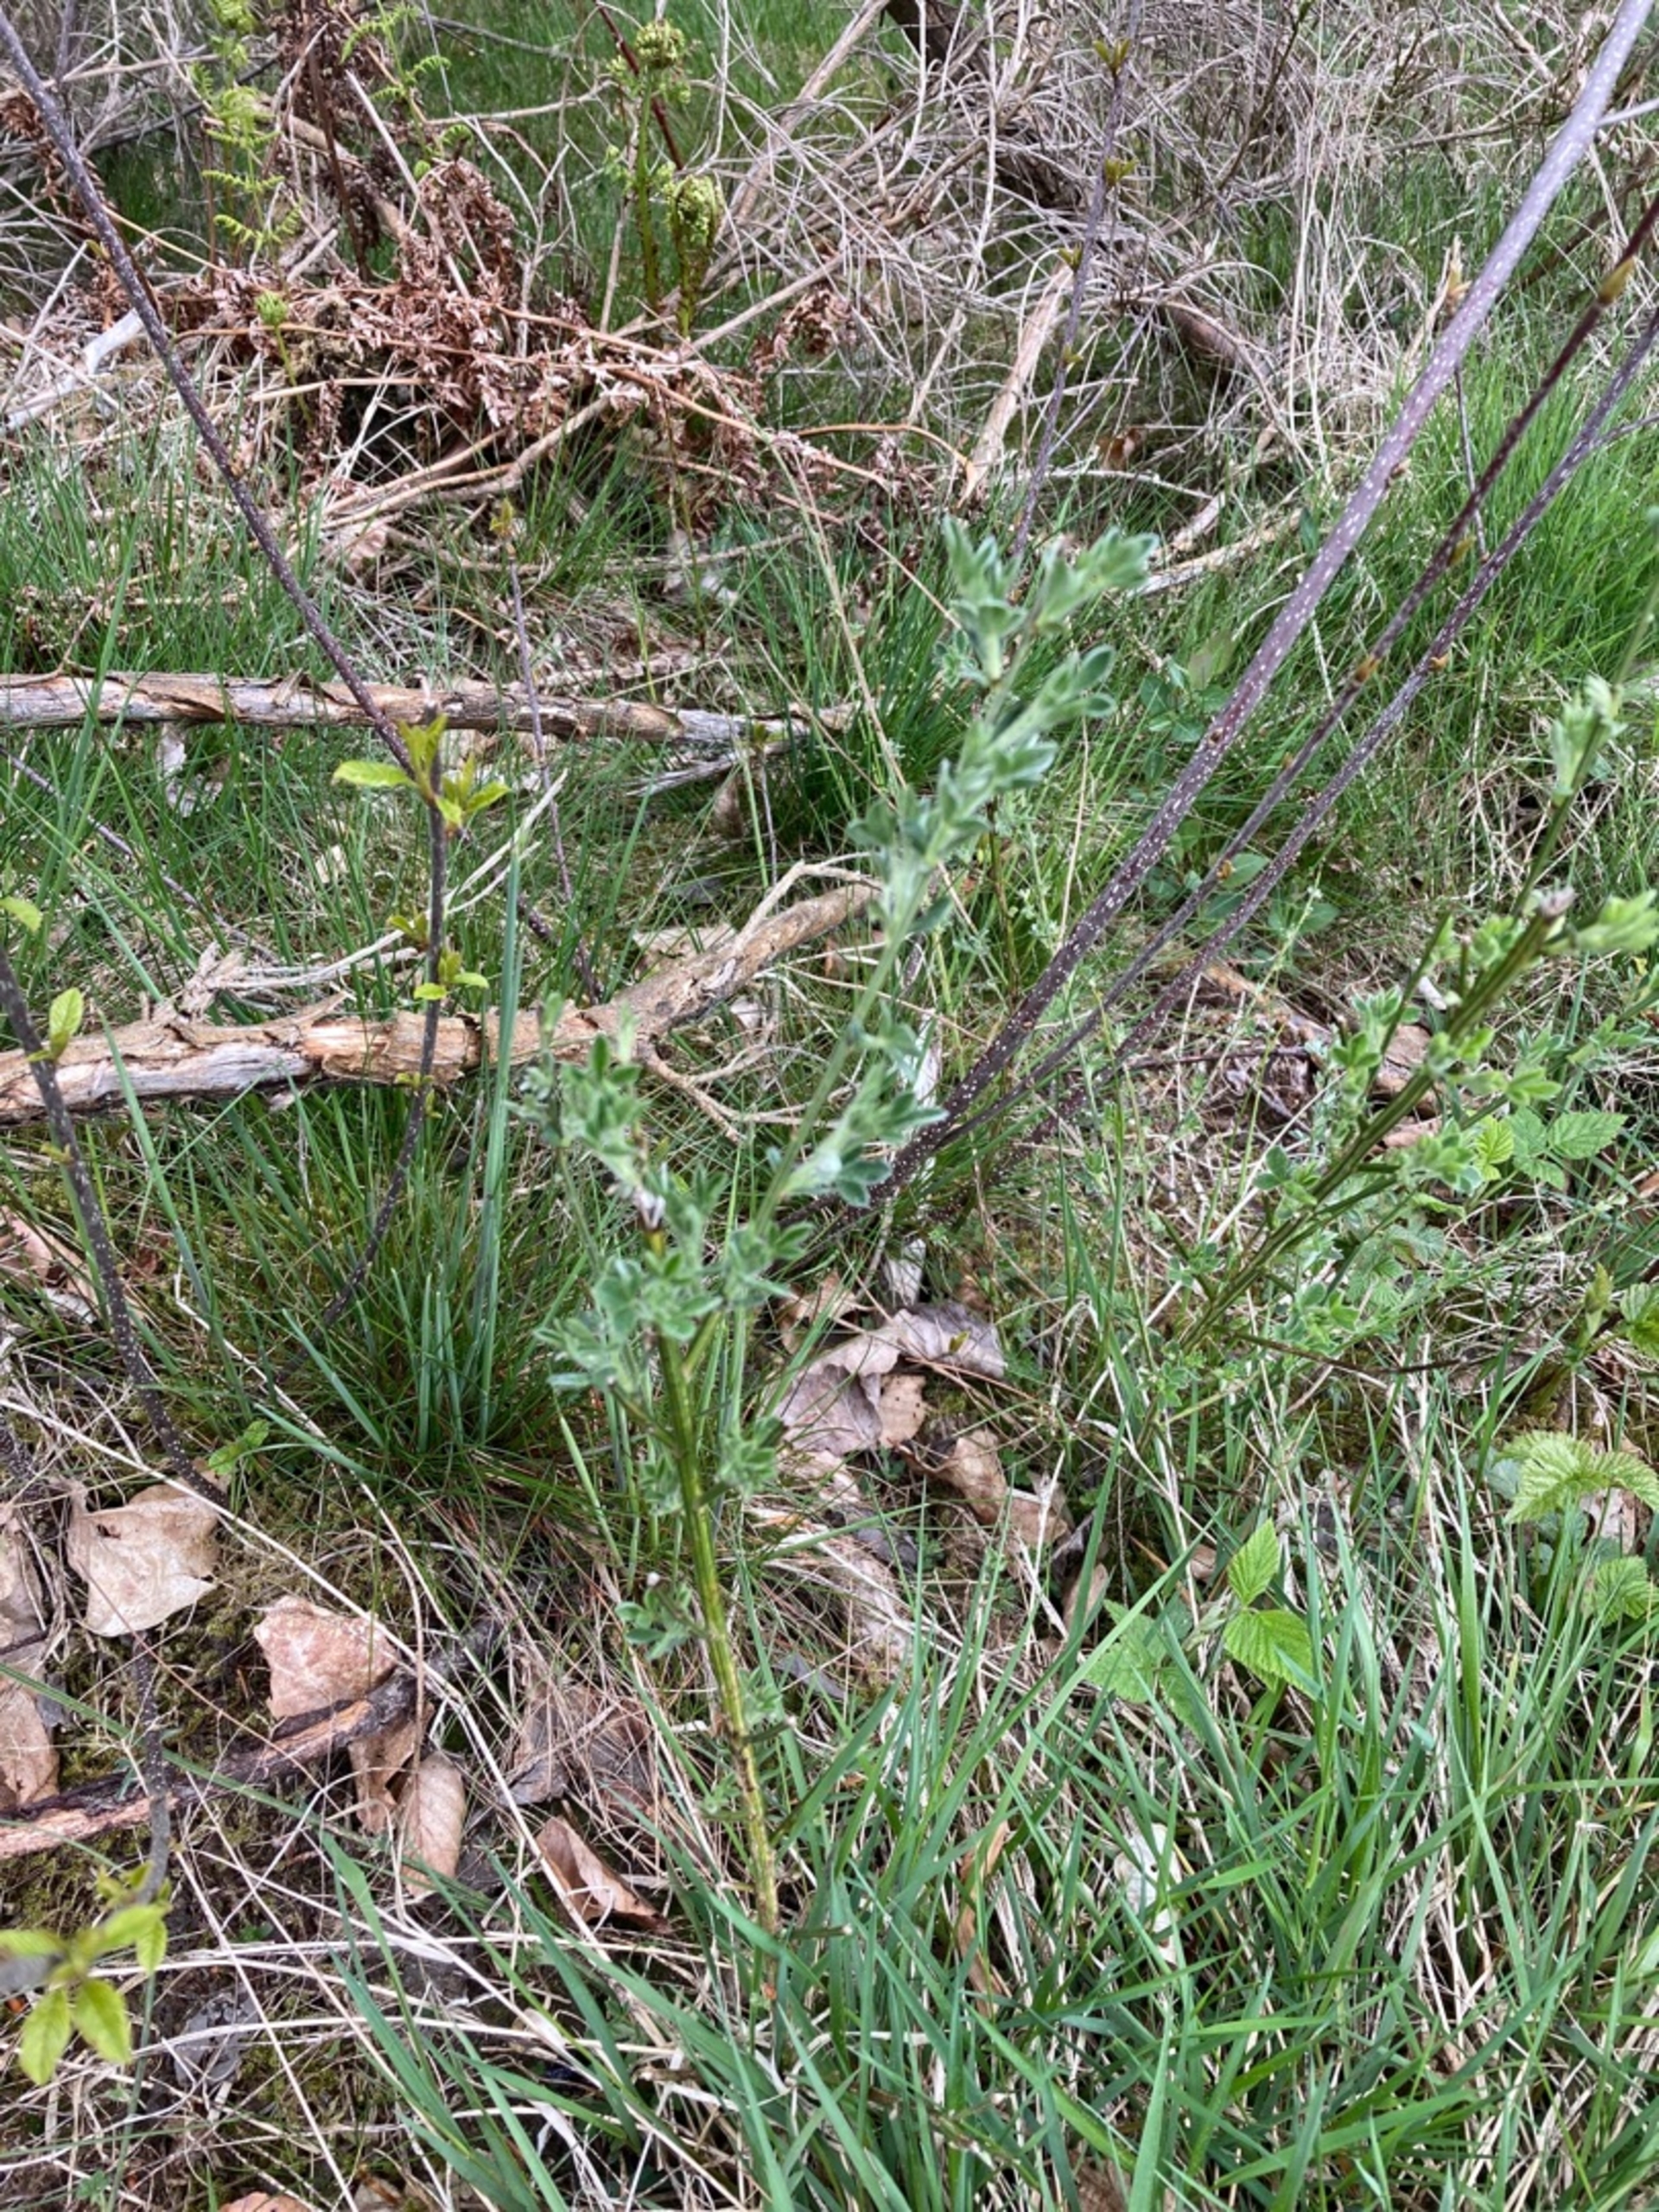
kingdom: Plantae
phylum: Tracheophyta
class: Magnoliopsida
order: Fabales
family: Fabaceae
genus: Cytisus
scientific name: Cytisus scoparius
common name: Almindelig gyvel
